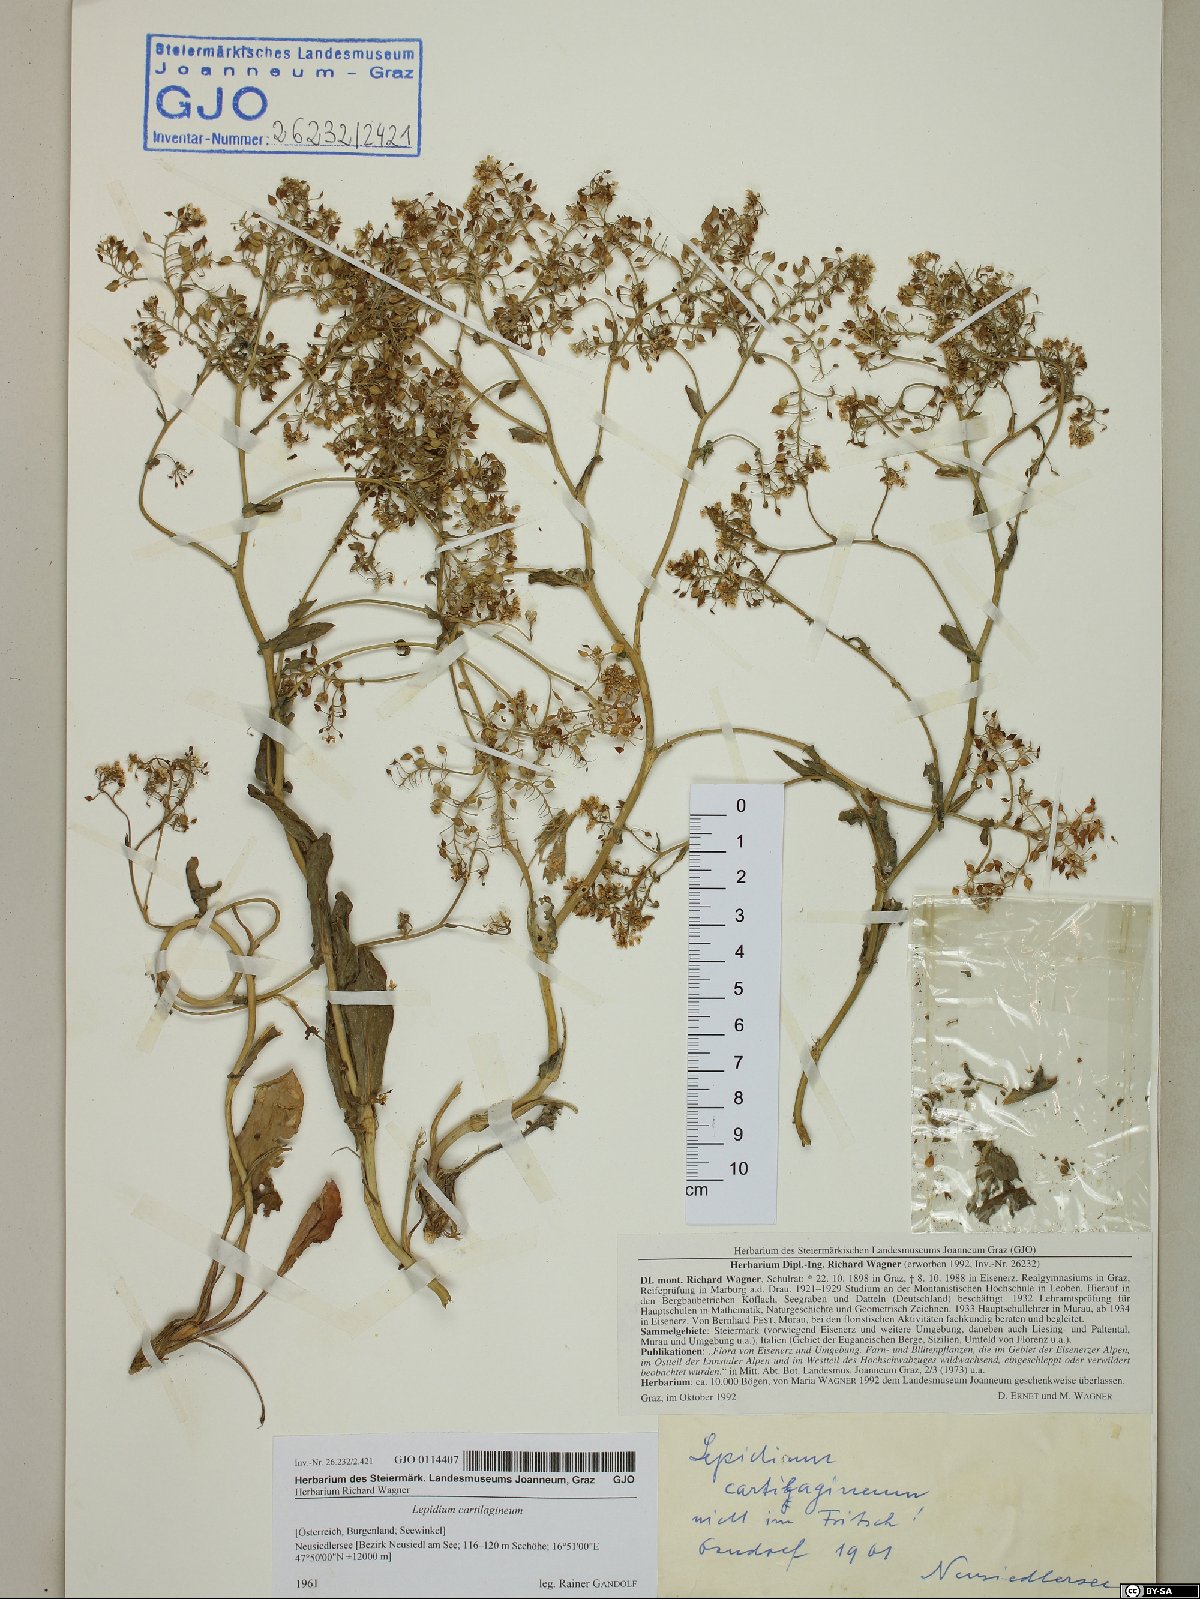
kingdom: Plantae
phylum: Tracheophyta
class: Magnoliopsida
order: Brassicales
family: Brassicaceae
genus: Lepidium
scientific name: Lepidium cartilagineum
